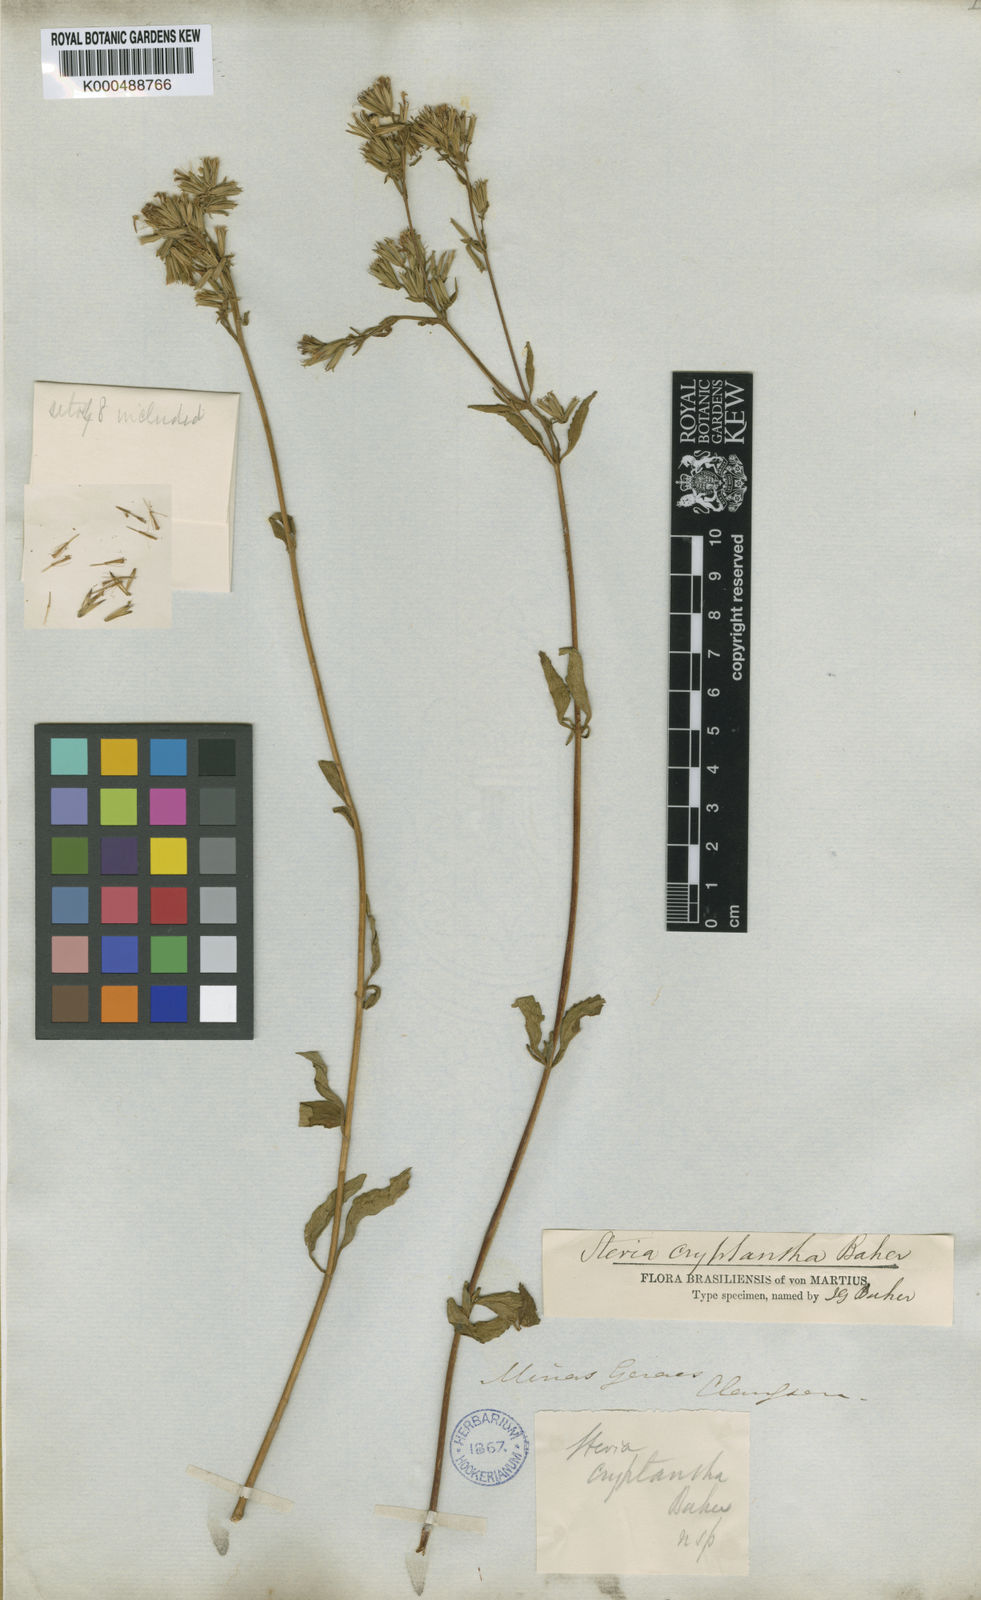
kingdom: Plantae
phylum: Tracheophyta
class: Magnoliopsida
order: Asterales
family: Asteraceae
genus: Stevia
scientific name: Stevia cryptantha
